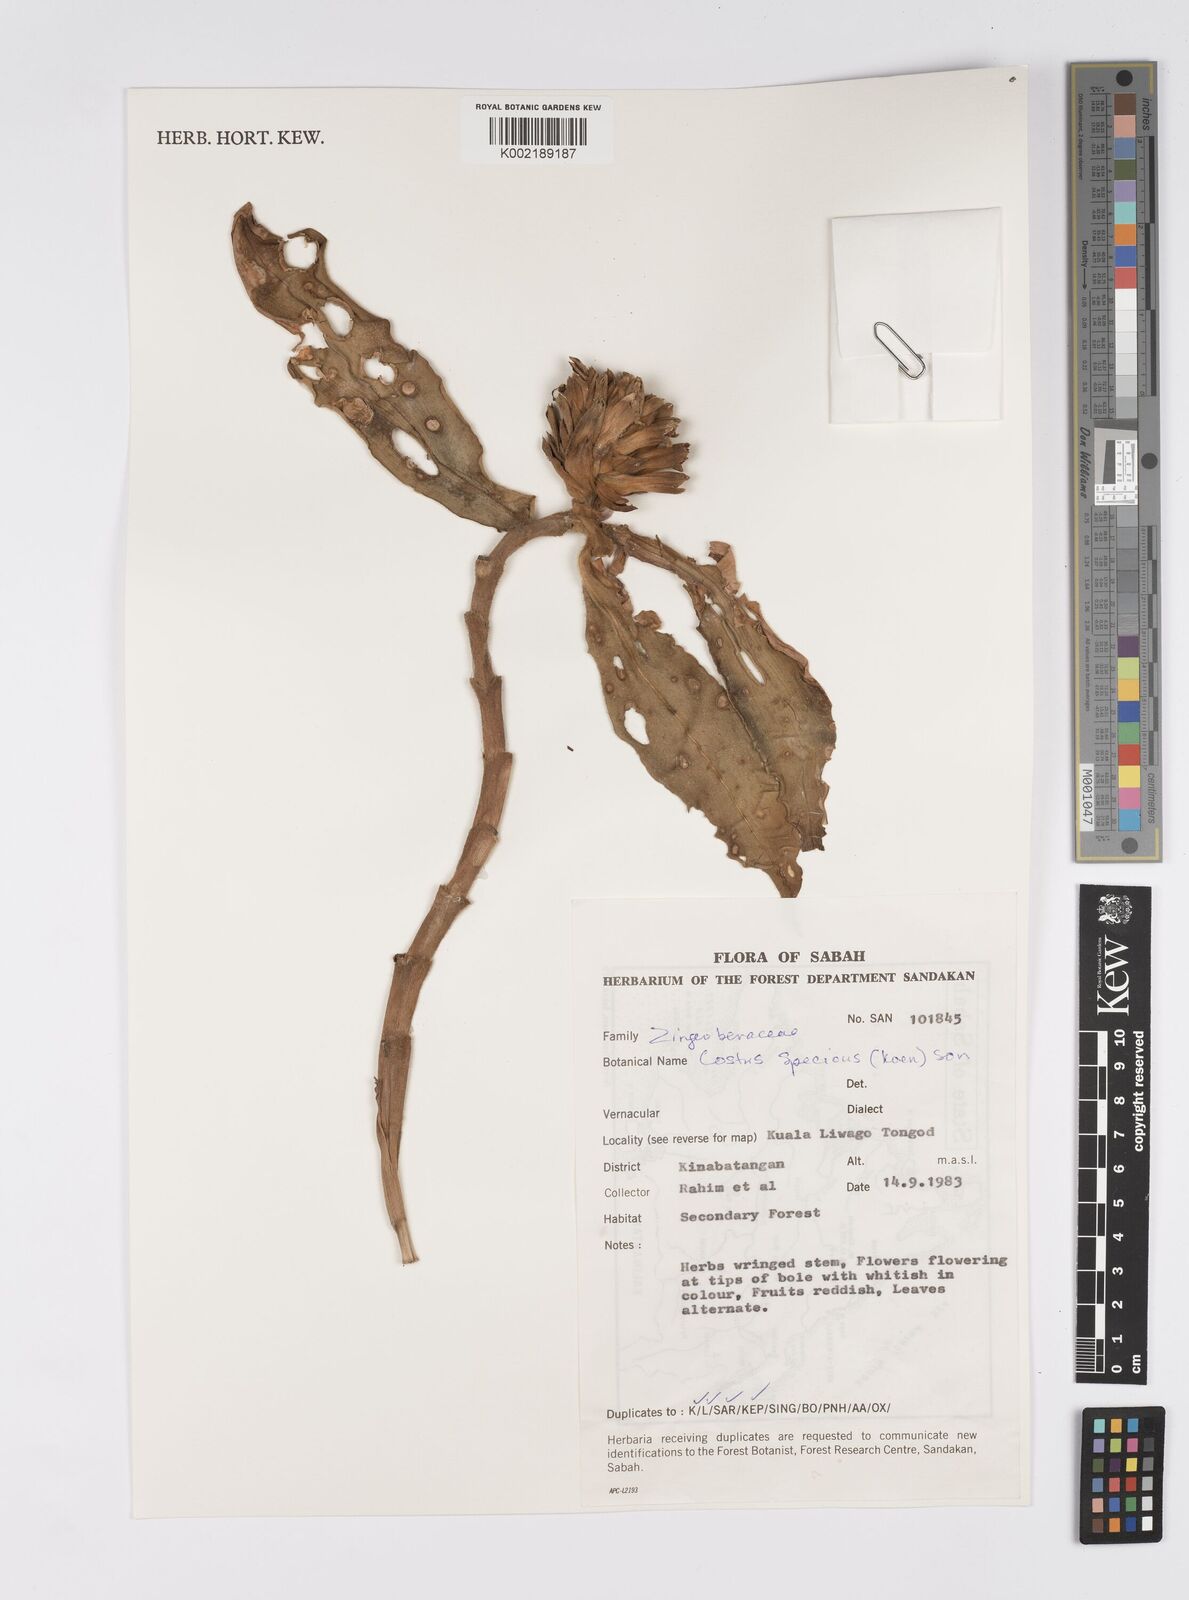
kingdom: Plantae
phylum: Tracheophyta
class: Liliopsida
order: Zingiberales
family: Costaceae
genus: Hellenia
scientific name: Hellenia speciosa
